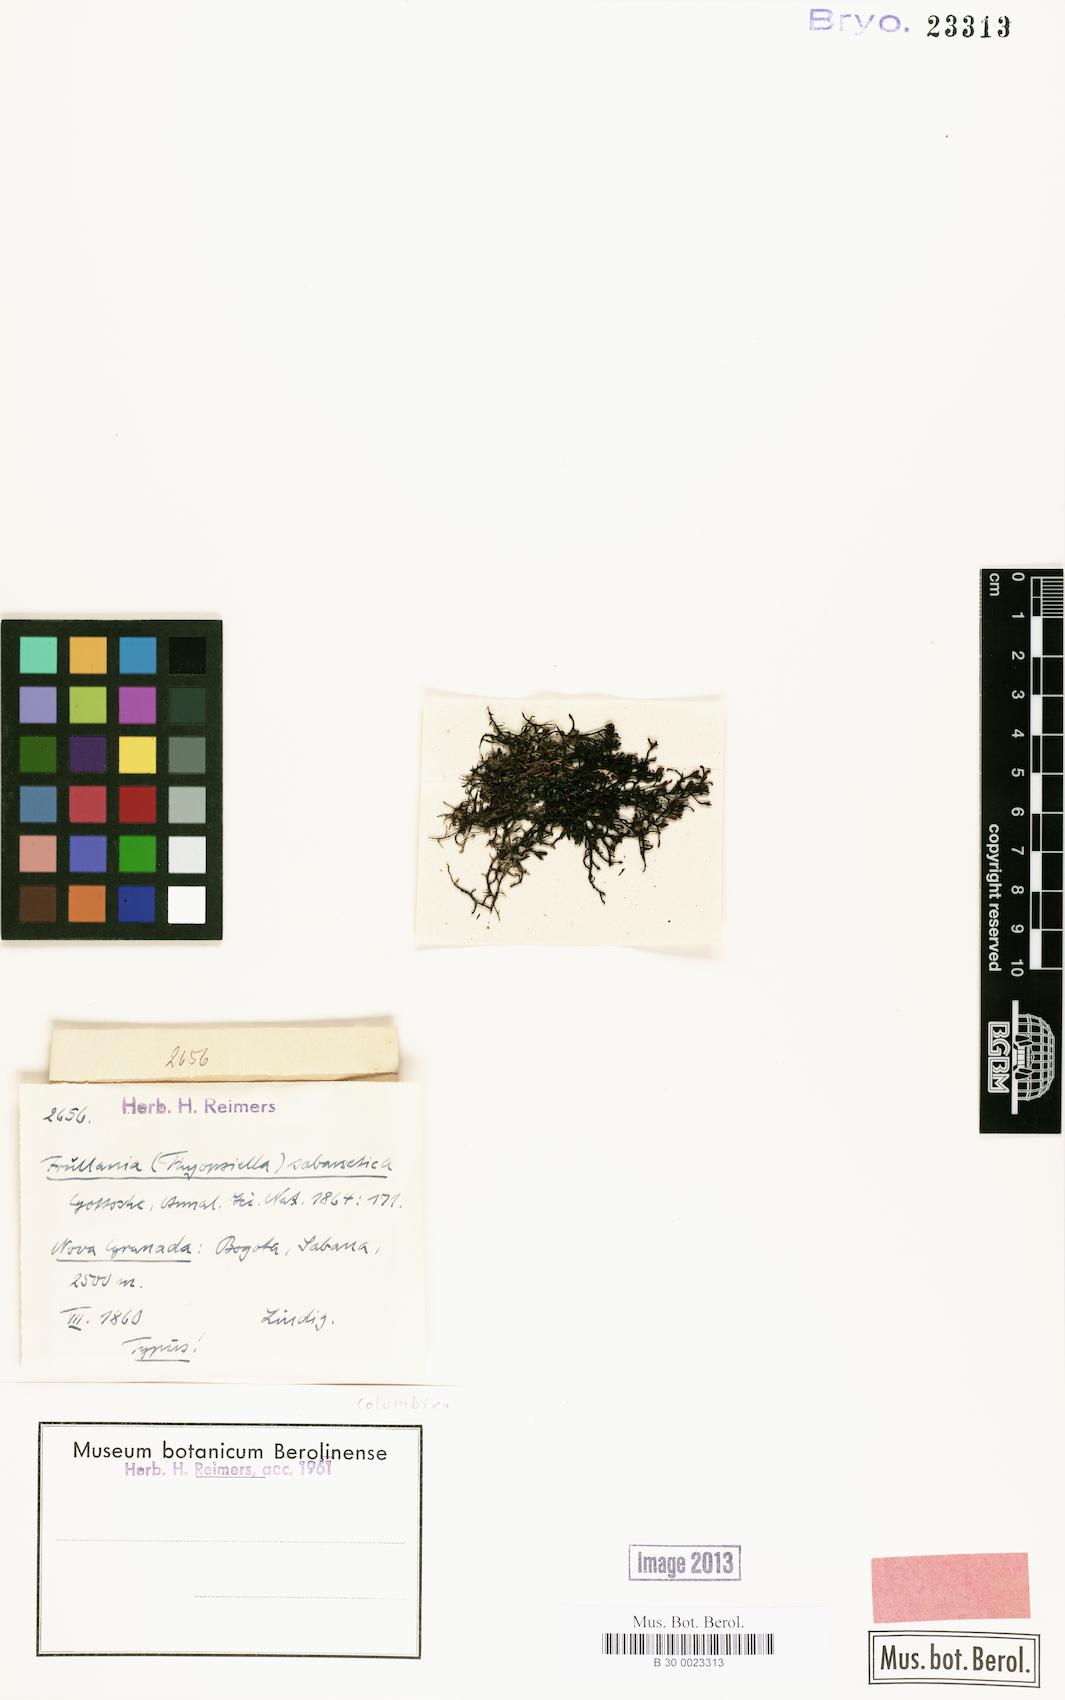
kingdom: Plantae
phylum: Marchantiophyta
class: Jungermanniopsida
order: Porellales
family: Frullaniaceae
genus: Frullania
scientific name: Frullania intumescens
